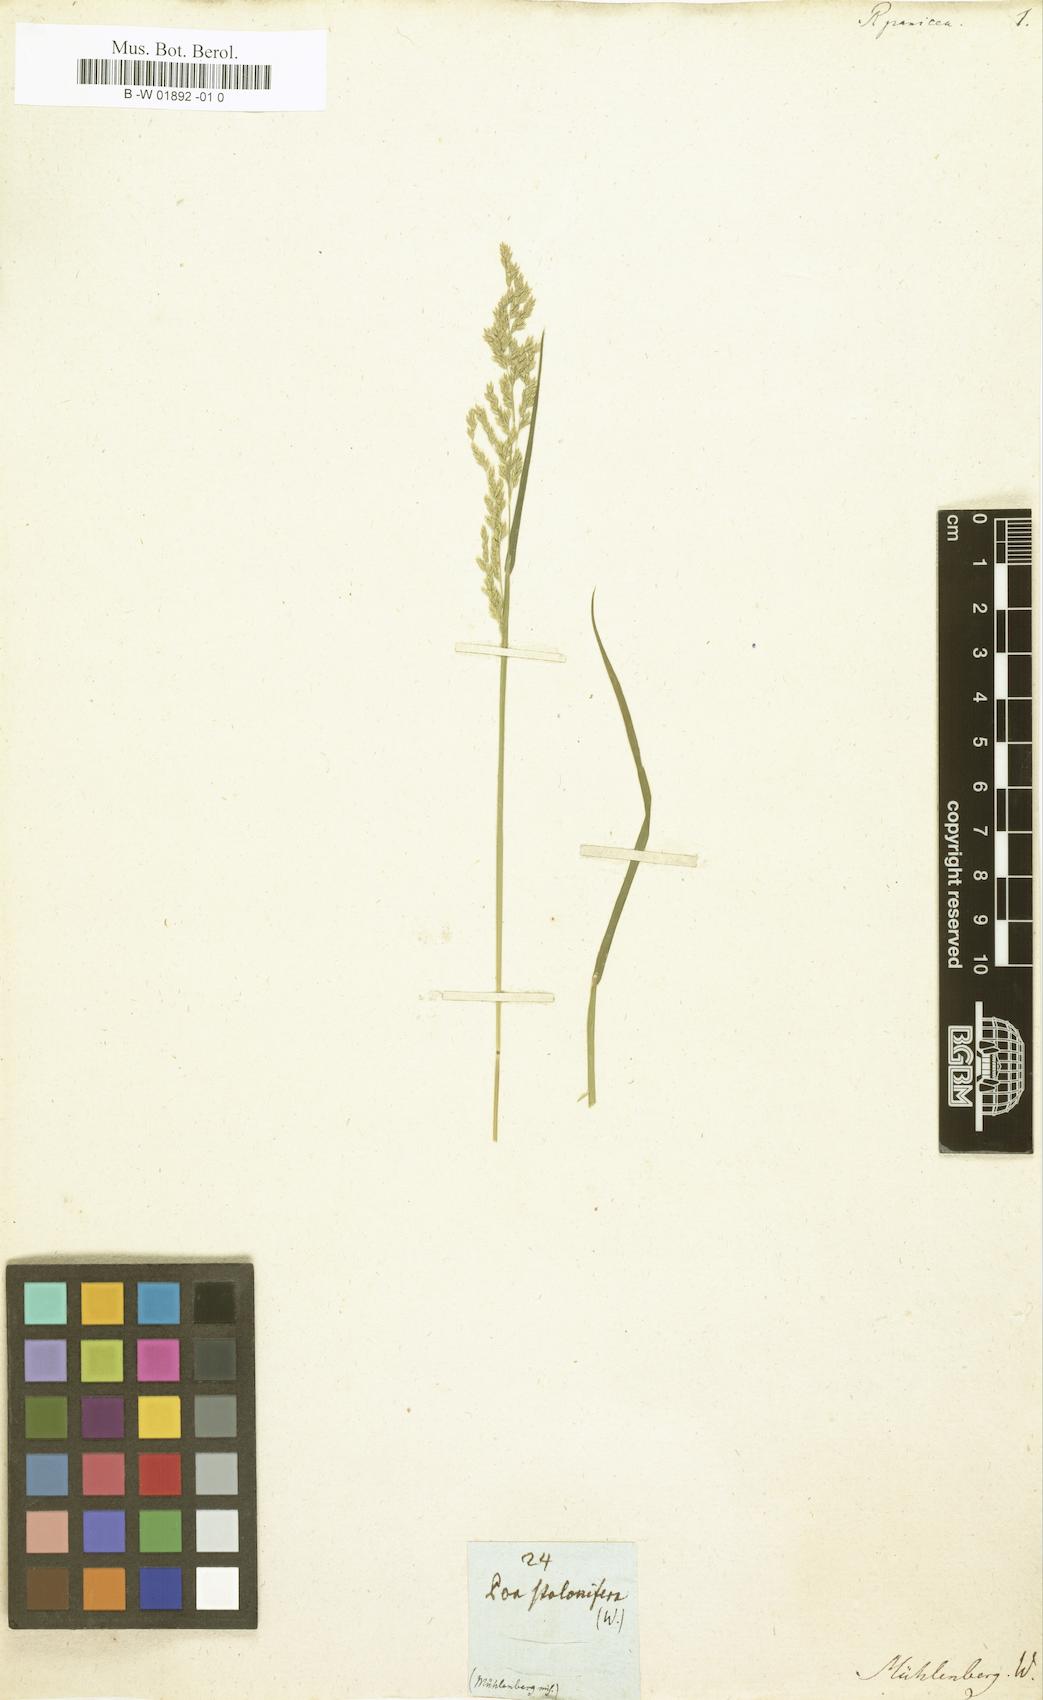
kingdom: Plantae
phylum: Tracheophyta
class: Liliopsida
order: Poales
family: Poaceae
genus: Leptochloa
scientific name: Leptochloa panicea
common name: Mucronate sprangletop
